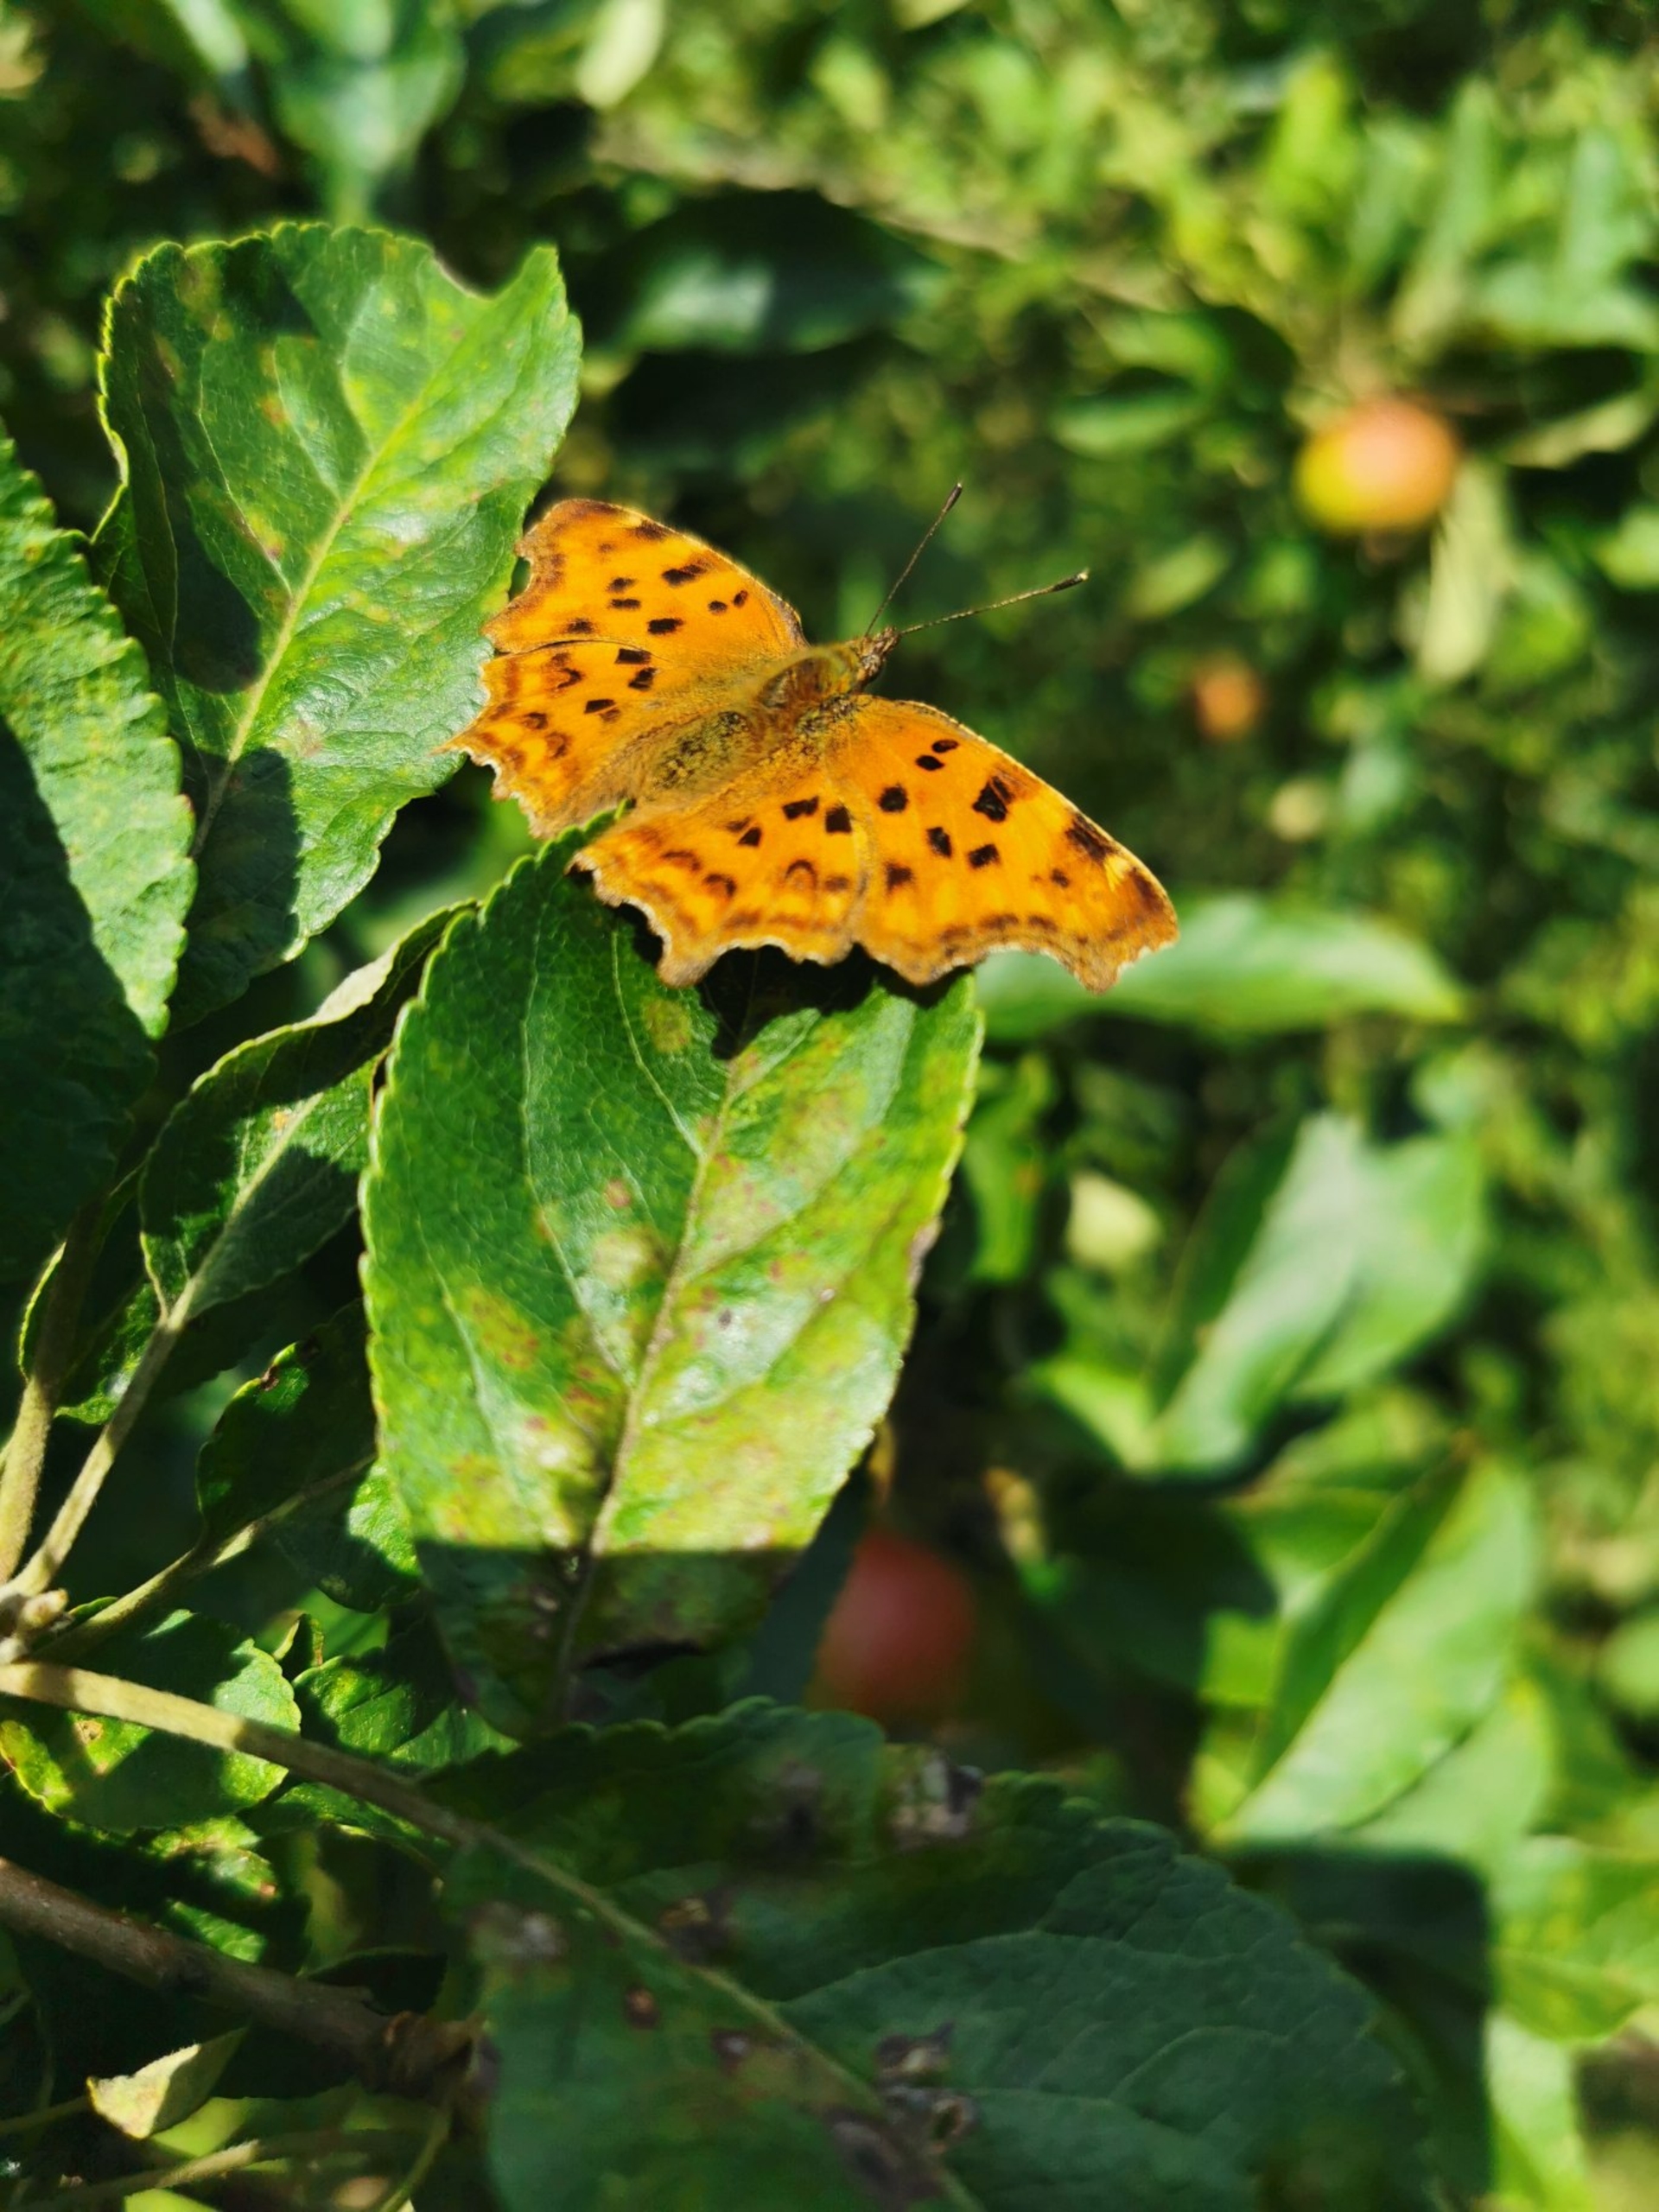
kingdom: Animalia
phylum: Arthropoda
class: Insecta
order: Lepidoptera
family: Nymphalidae
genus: Polygonia
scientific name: Polygonia c-album
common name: Det hvide C
